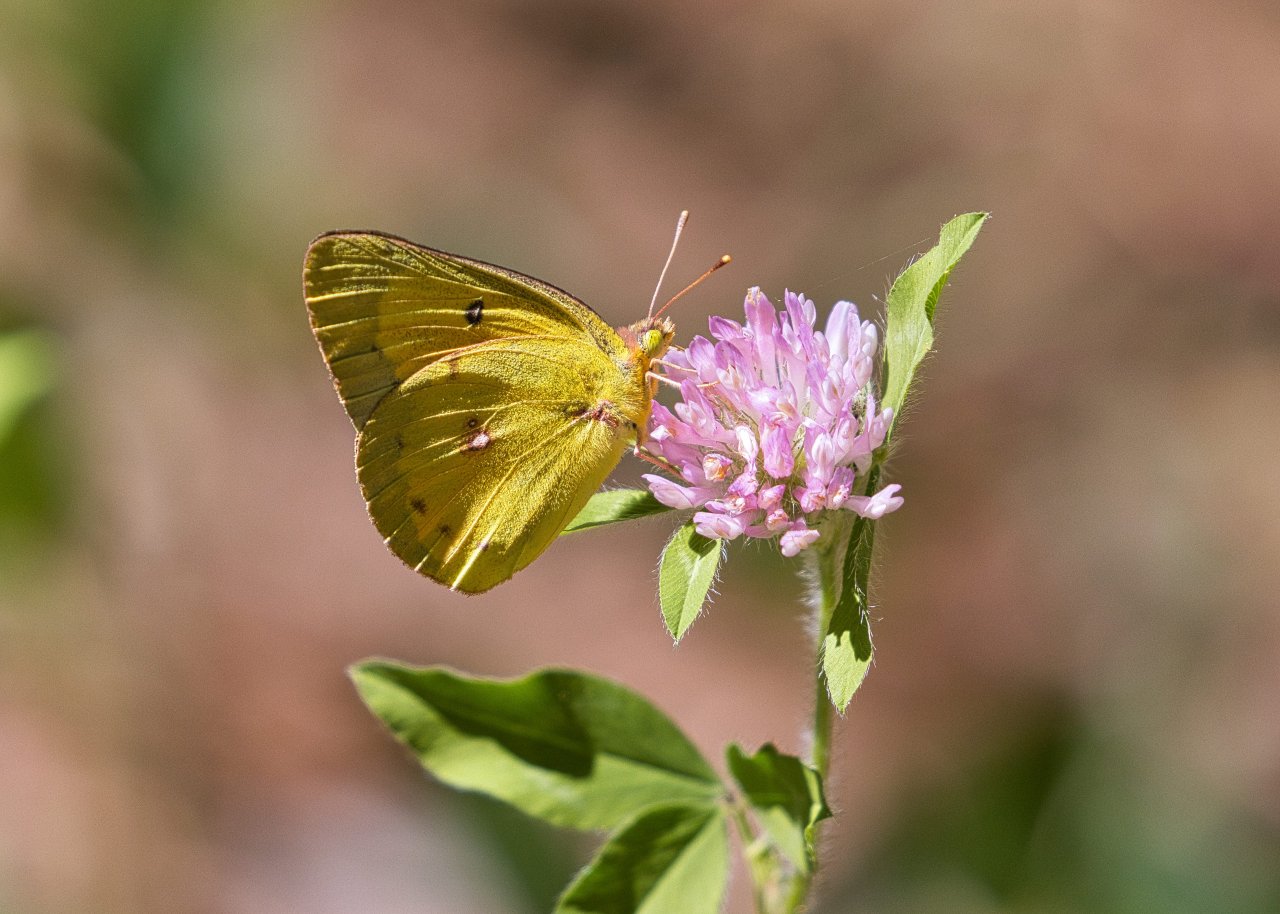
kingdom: Animalia
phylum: Arthropoda
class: Insecta
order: Lepidoptera
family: Pieridae
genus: Colias
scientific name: Colias eurytheme
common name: Orange Sulphur
